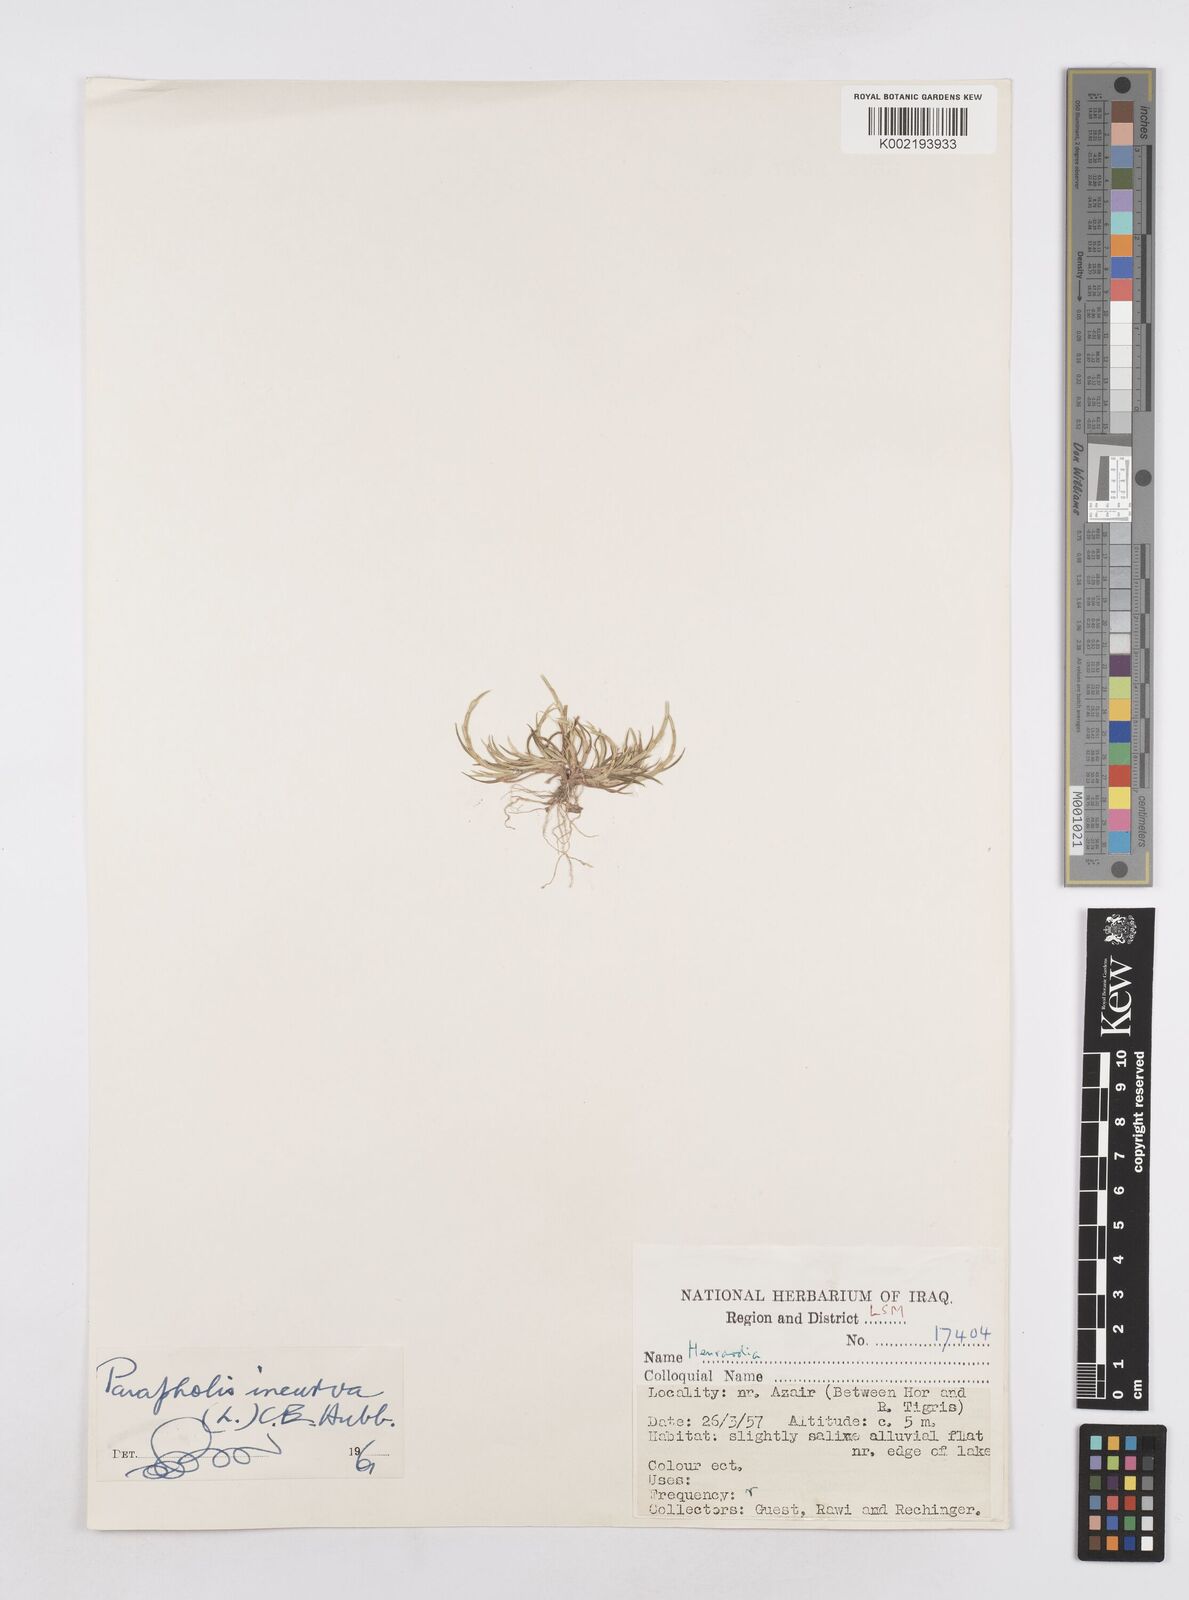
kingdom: Plantae
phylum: Tracheophyta
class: Liliopsida
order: Poales
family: Poaceae
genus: Parapholis
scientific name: Parapholis incurva
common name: Curved sicklegrass
